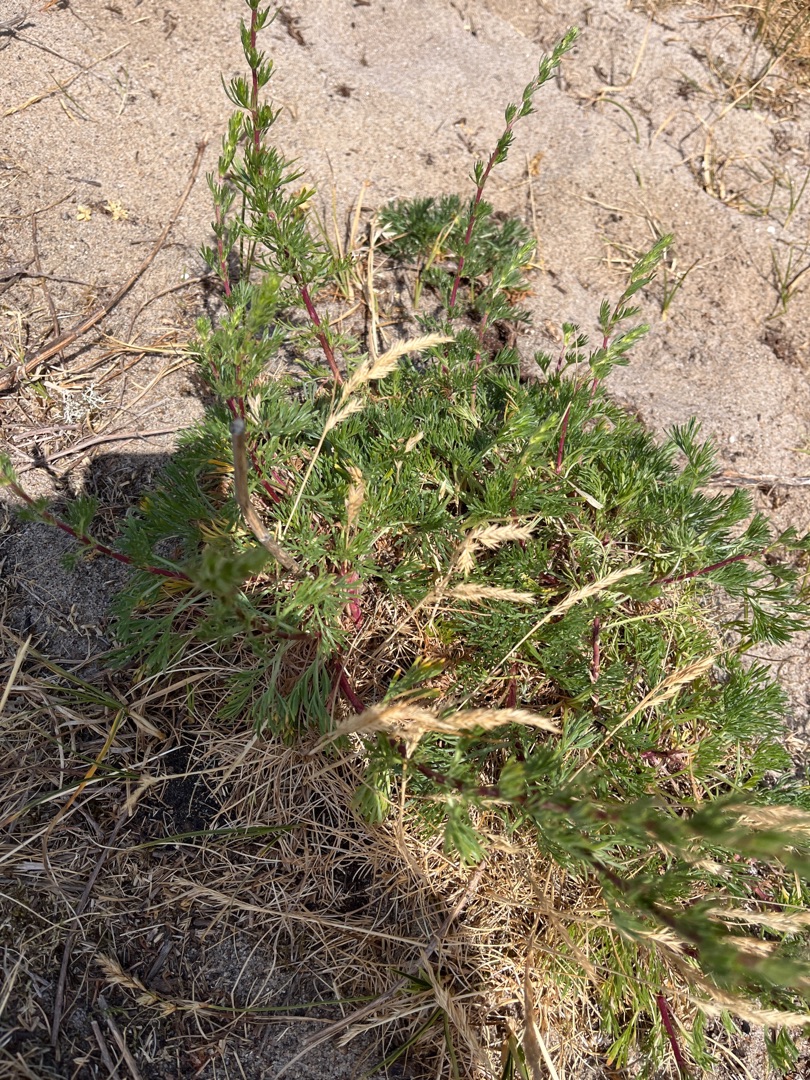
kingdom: Plantae
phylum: Tracheophyta
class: Magnoliopsida
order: Asterales
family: Asteraceae
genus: Artemisia
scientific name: Artemisia campestris
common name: Mark-bynke
